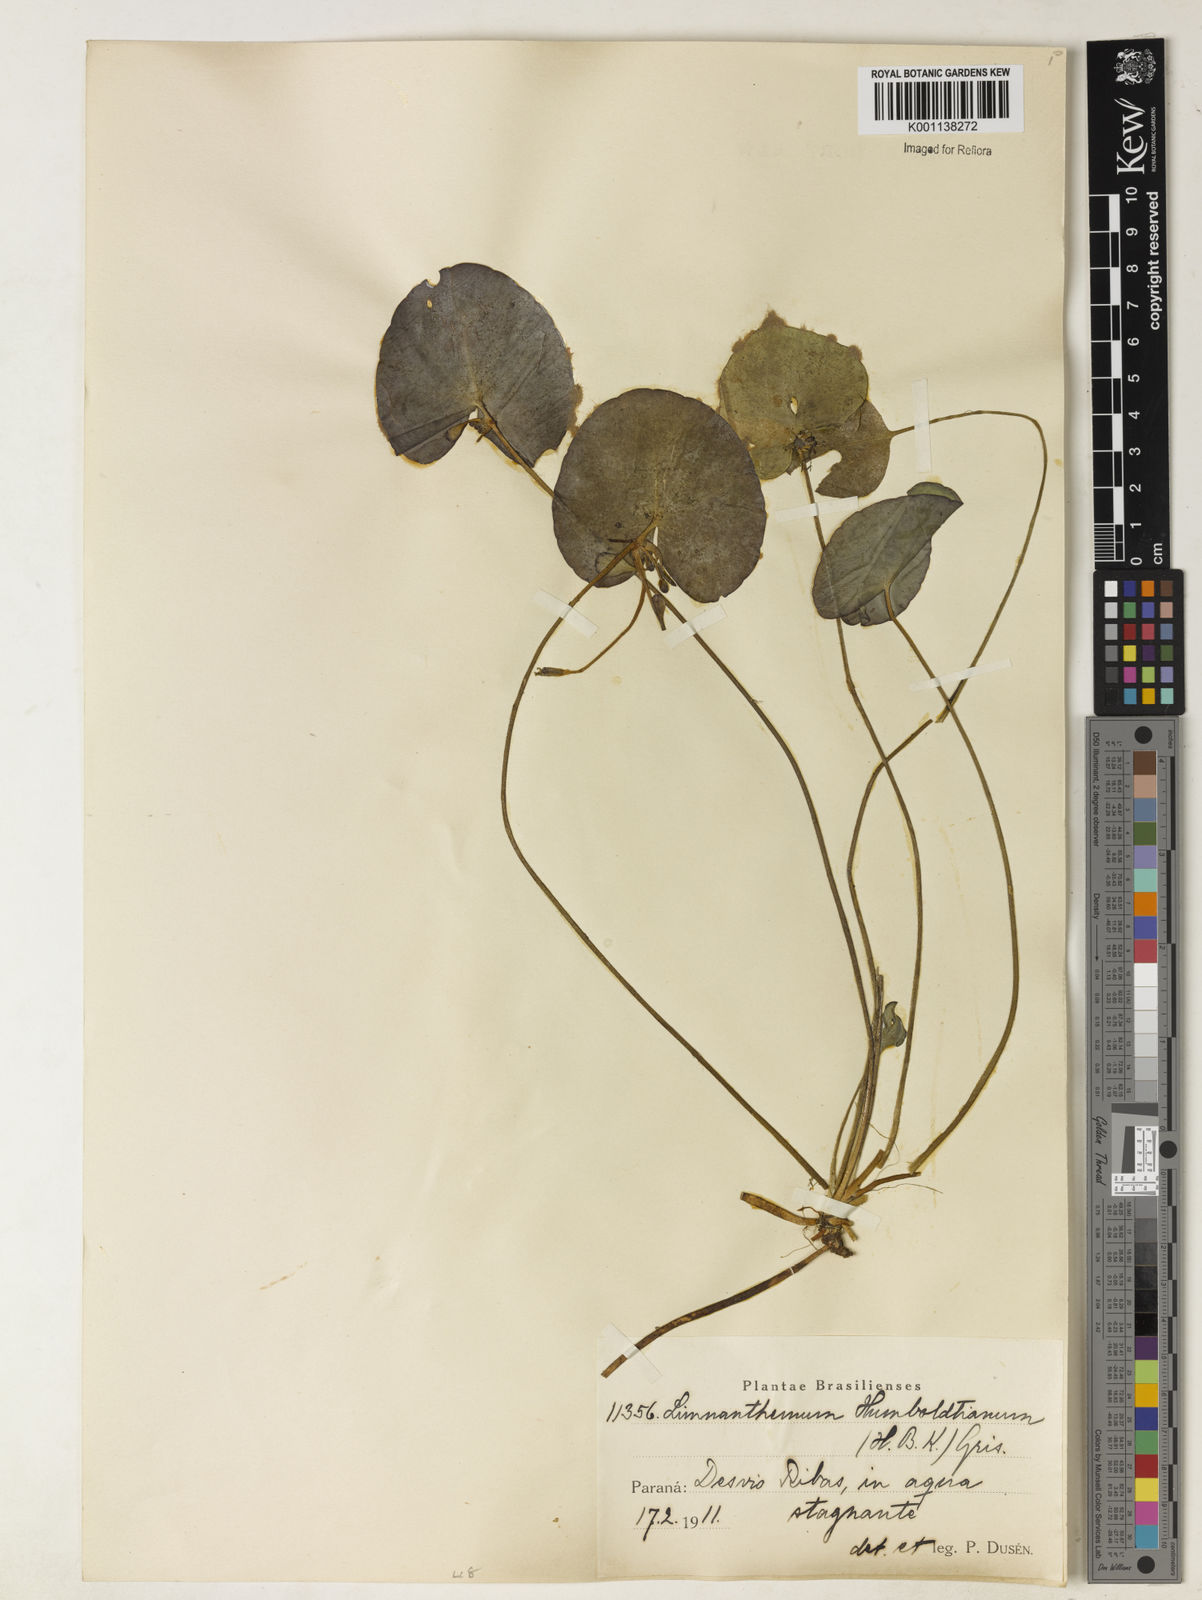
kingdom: Plantae
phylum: Tracheophyta
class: Magnoliopsida
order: Asterales
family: Menyanthaceae
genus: Nymphoides
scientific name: Nymphoides humboldtiana
